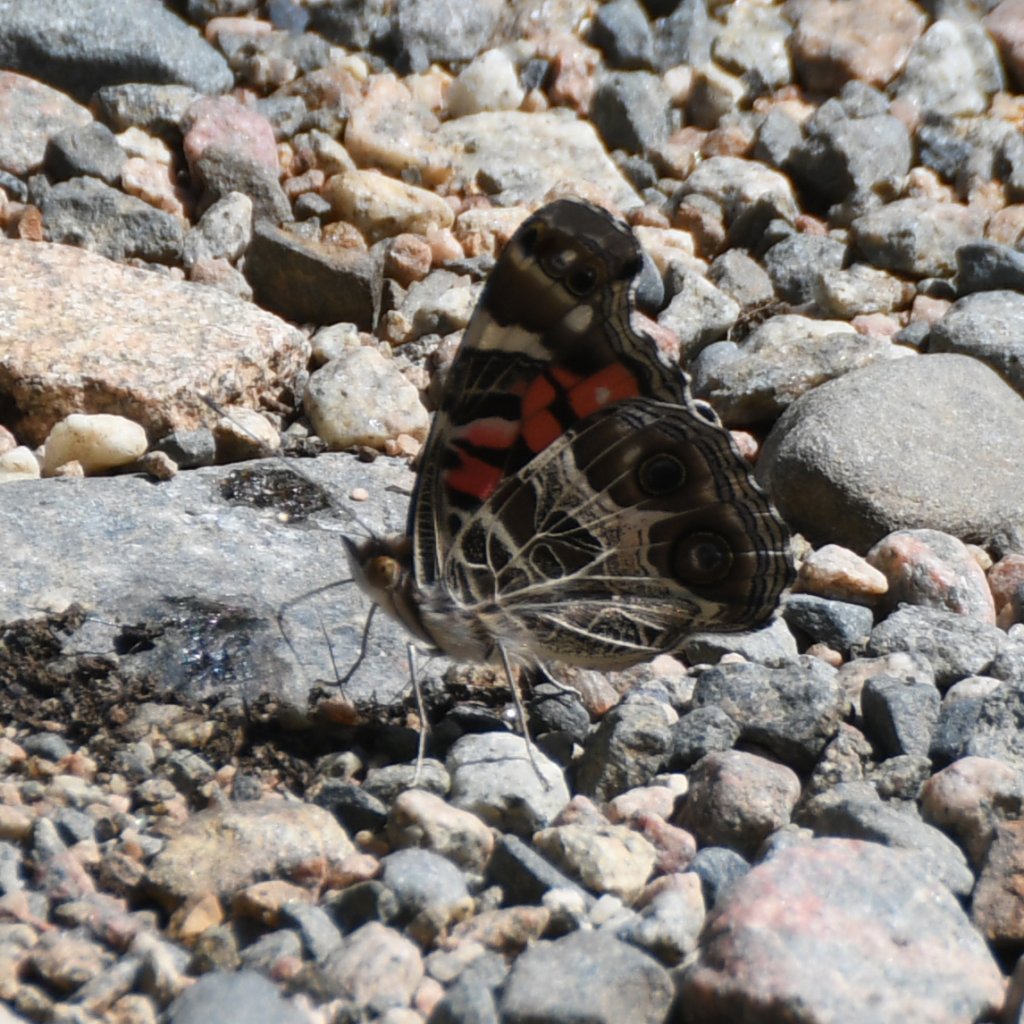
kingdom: Animalia
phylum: Arthropoda
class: Insecta
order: Lepidoptera
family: Nymphalidae
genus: Vanessa
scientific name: Vanessa virginiensis
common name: American Lady
